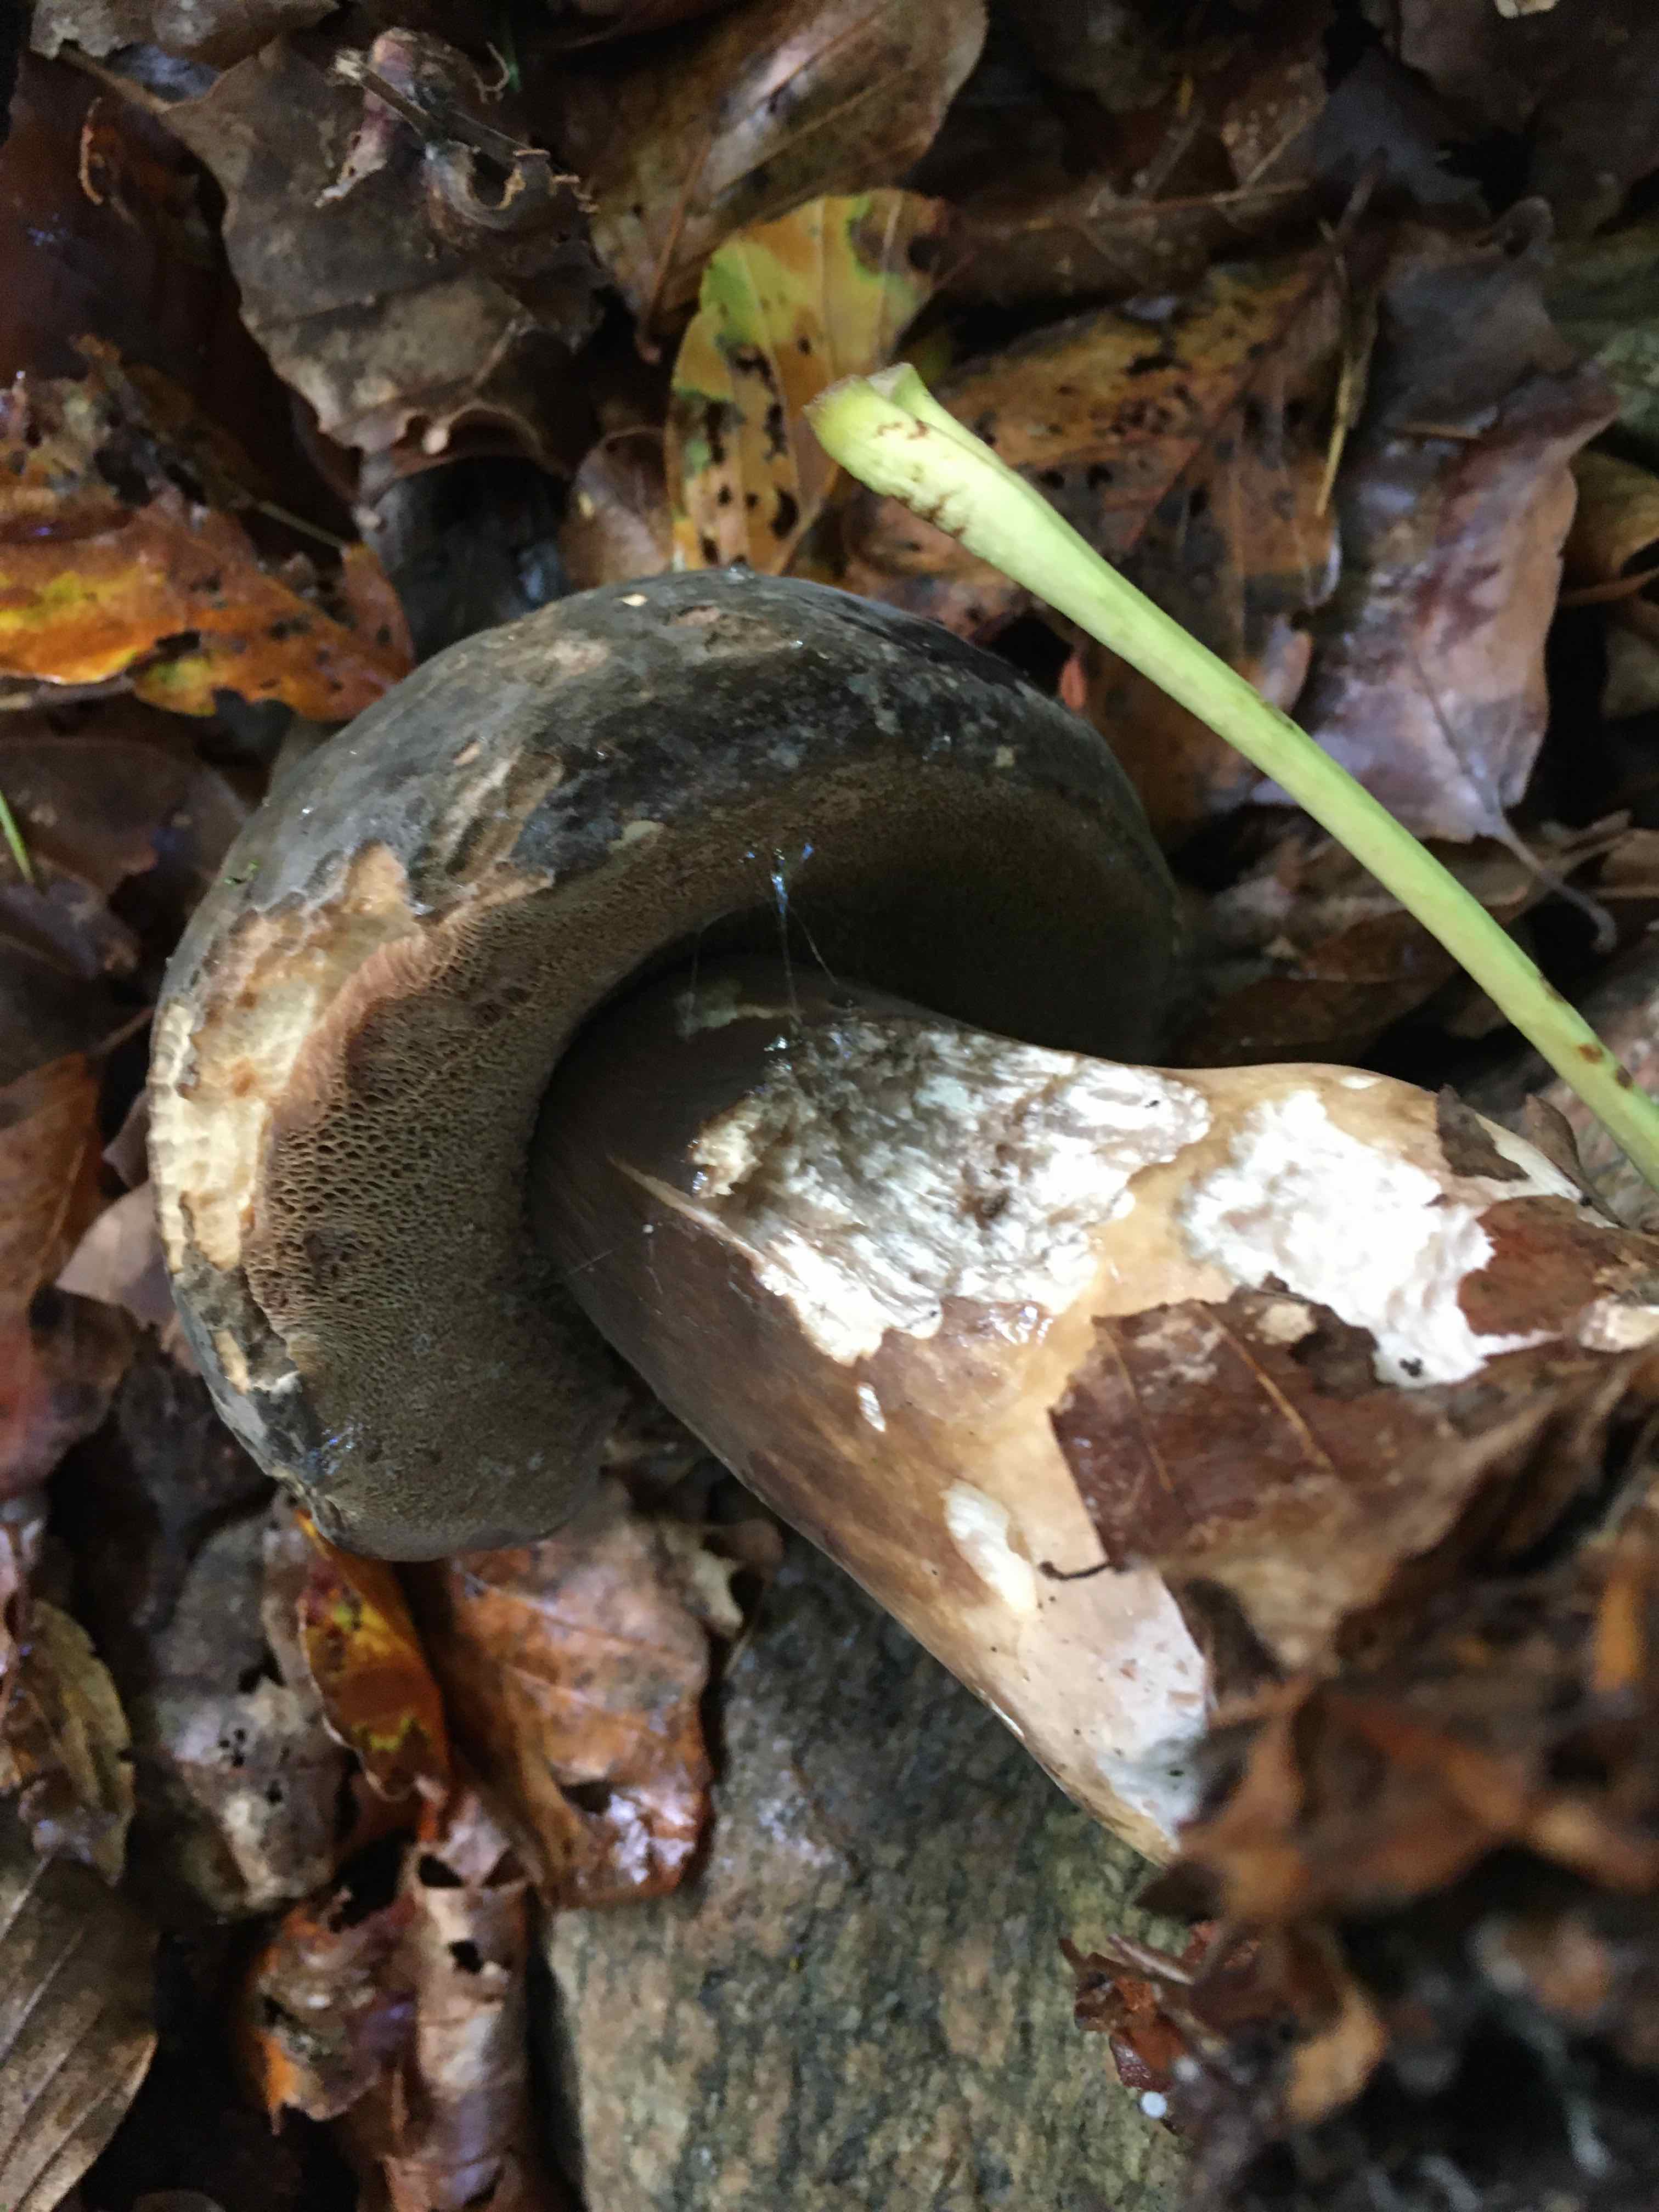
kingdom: Fungi
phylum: Basidiomycota
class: Agaricomycetes
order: Boletales
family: Boletaceae
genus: Porphyrellus
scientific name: Porphyrellus porphyrosporus
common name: sodrørhat
